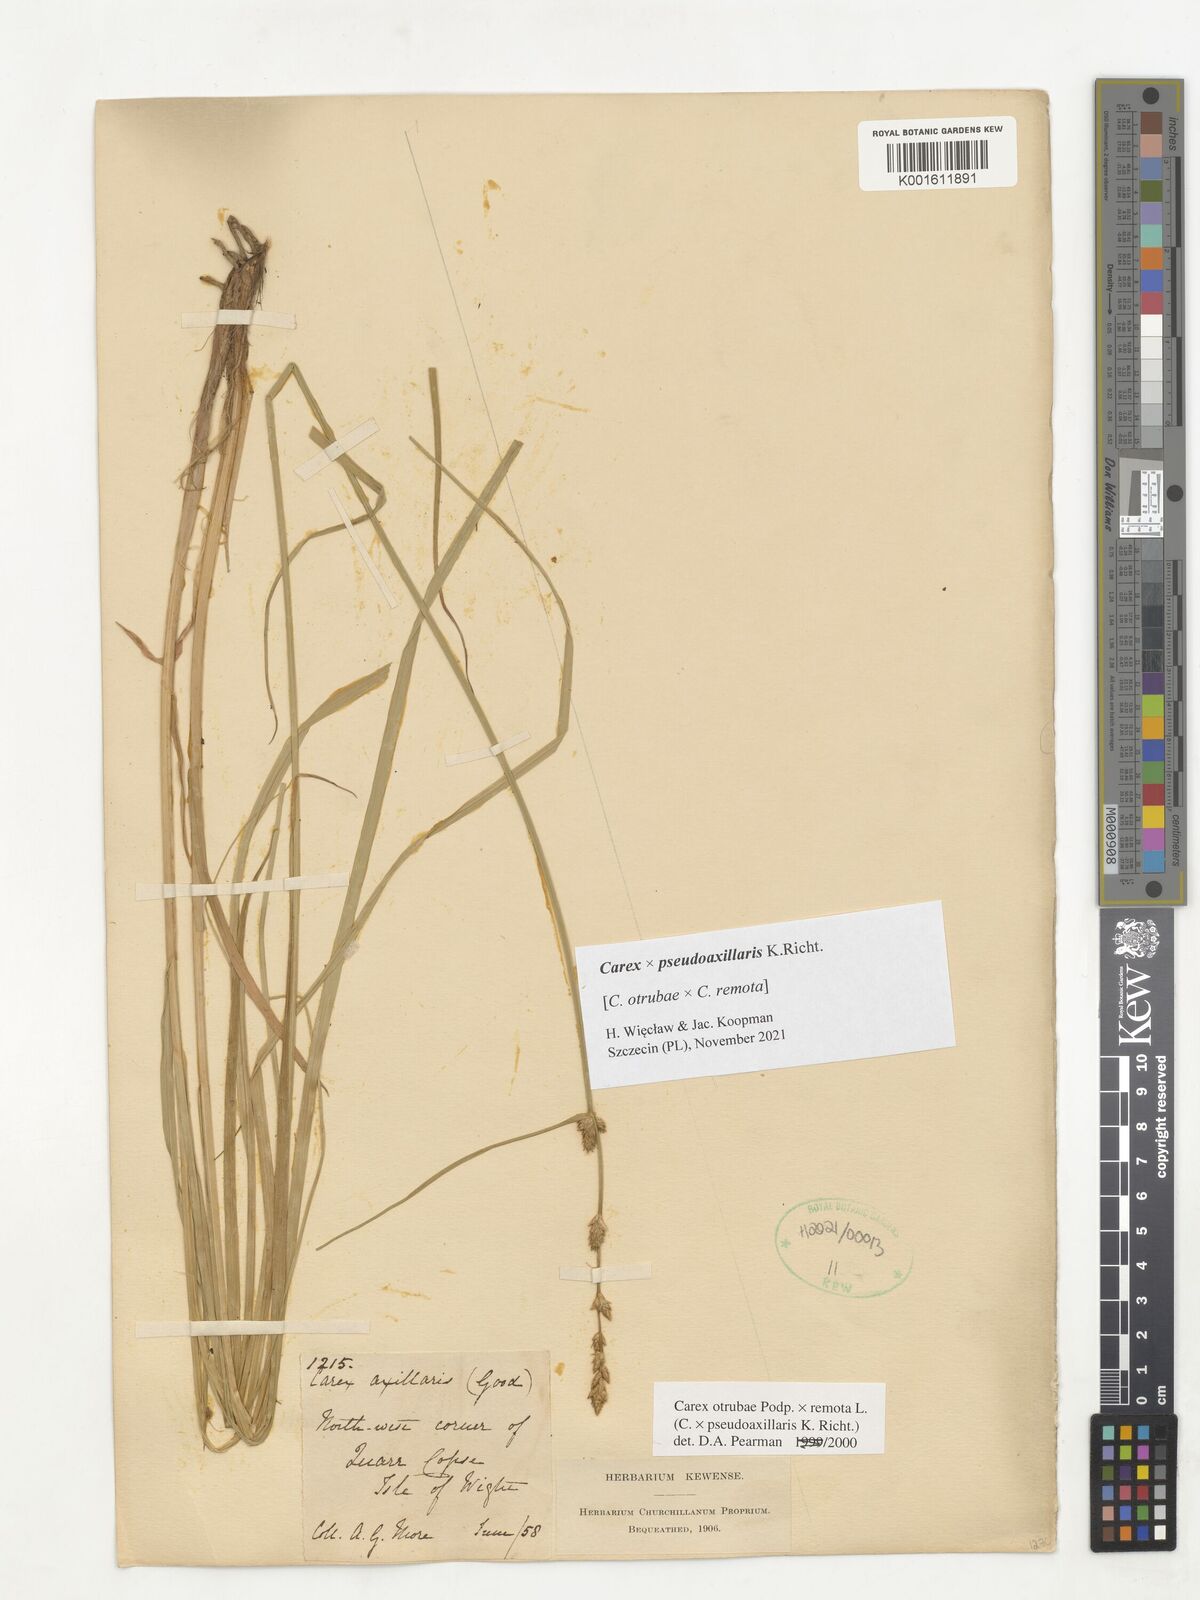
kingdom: Plantae
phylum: Tracheophyta
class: Liliopsida
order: Poales
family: Cyperaceae
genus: Carex
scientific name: Carex pseudoaxillaris
